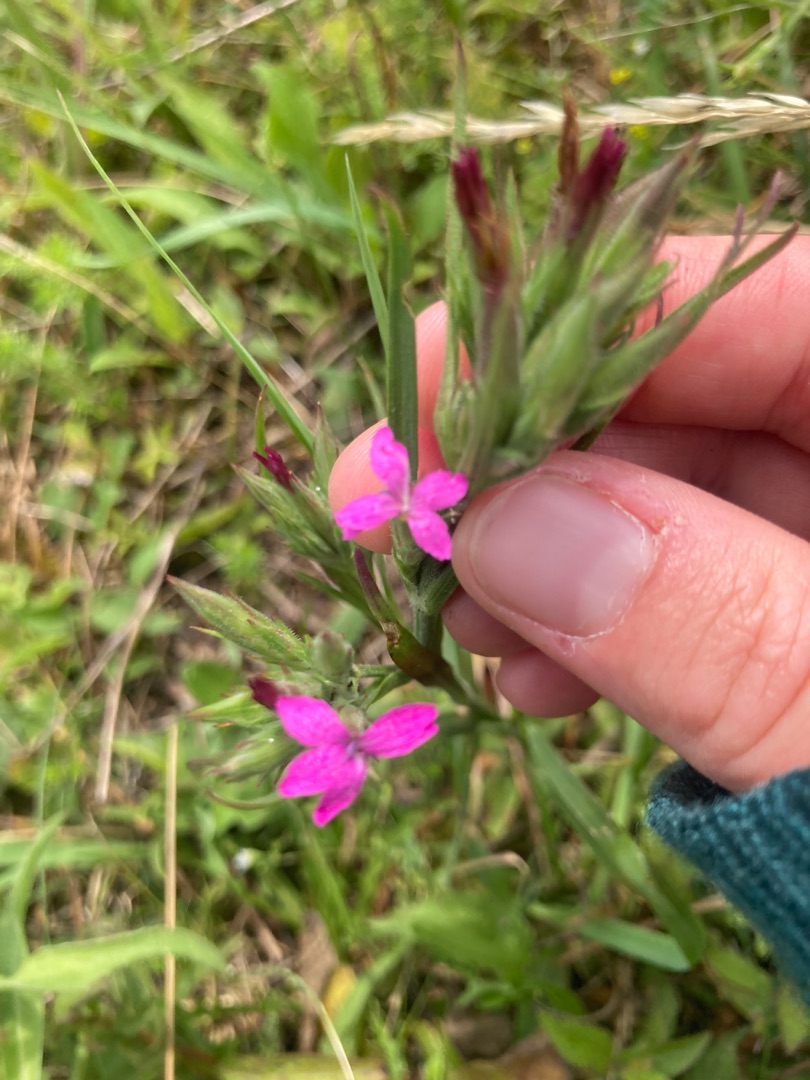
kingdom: Plantae
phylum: Tracheophyta
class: Magnoliopsida
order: Caryophyllales
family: Caryophyllaceae
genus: Dianthus
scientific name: Dianthus armeria
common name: Kost-nellike
